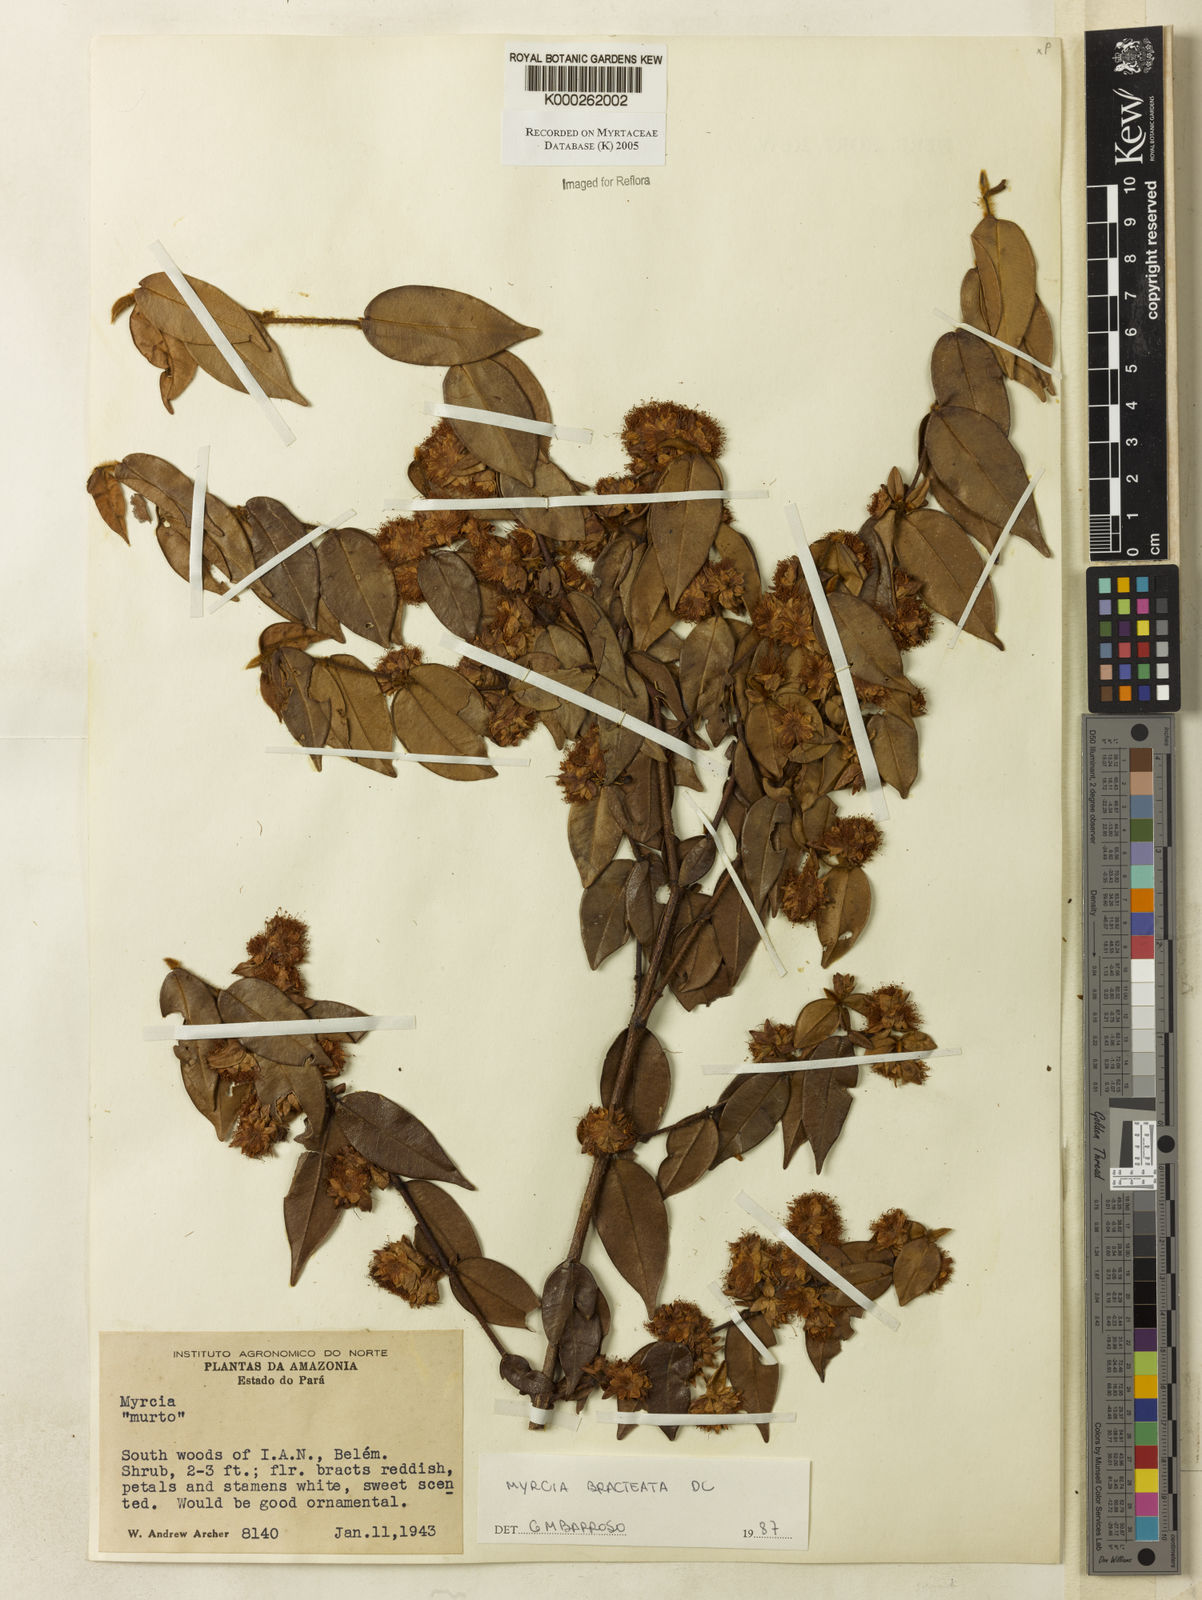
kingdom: Plantae
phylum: Tracheophyta
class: Magnoliopsida
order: Myrtales
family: Myrtaceae
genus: Myrcia
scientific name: Myrcia bracteata
